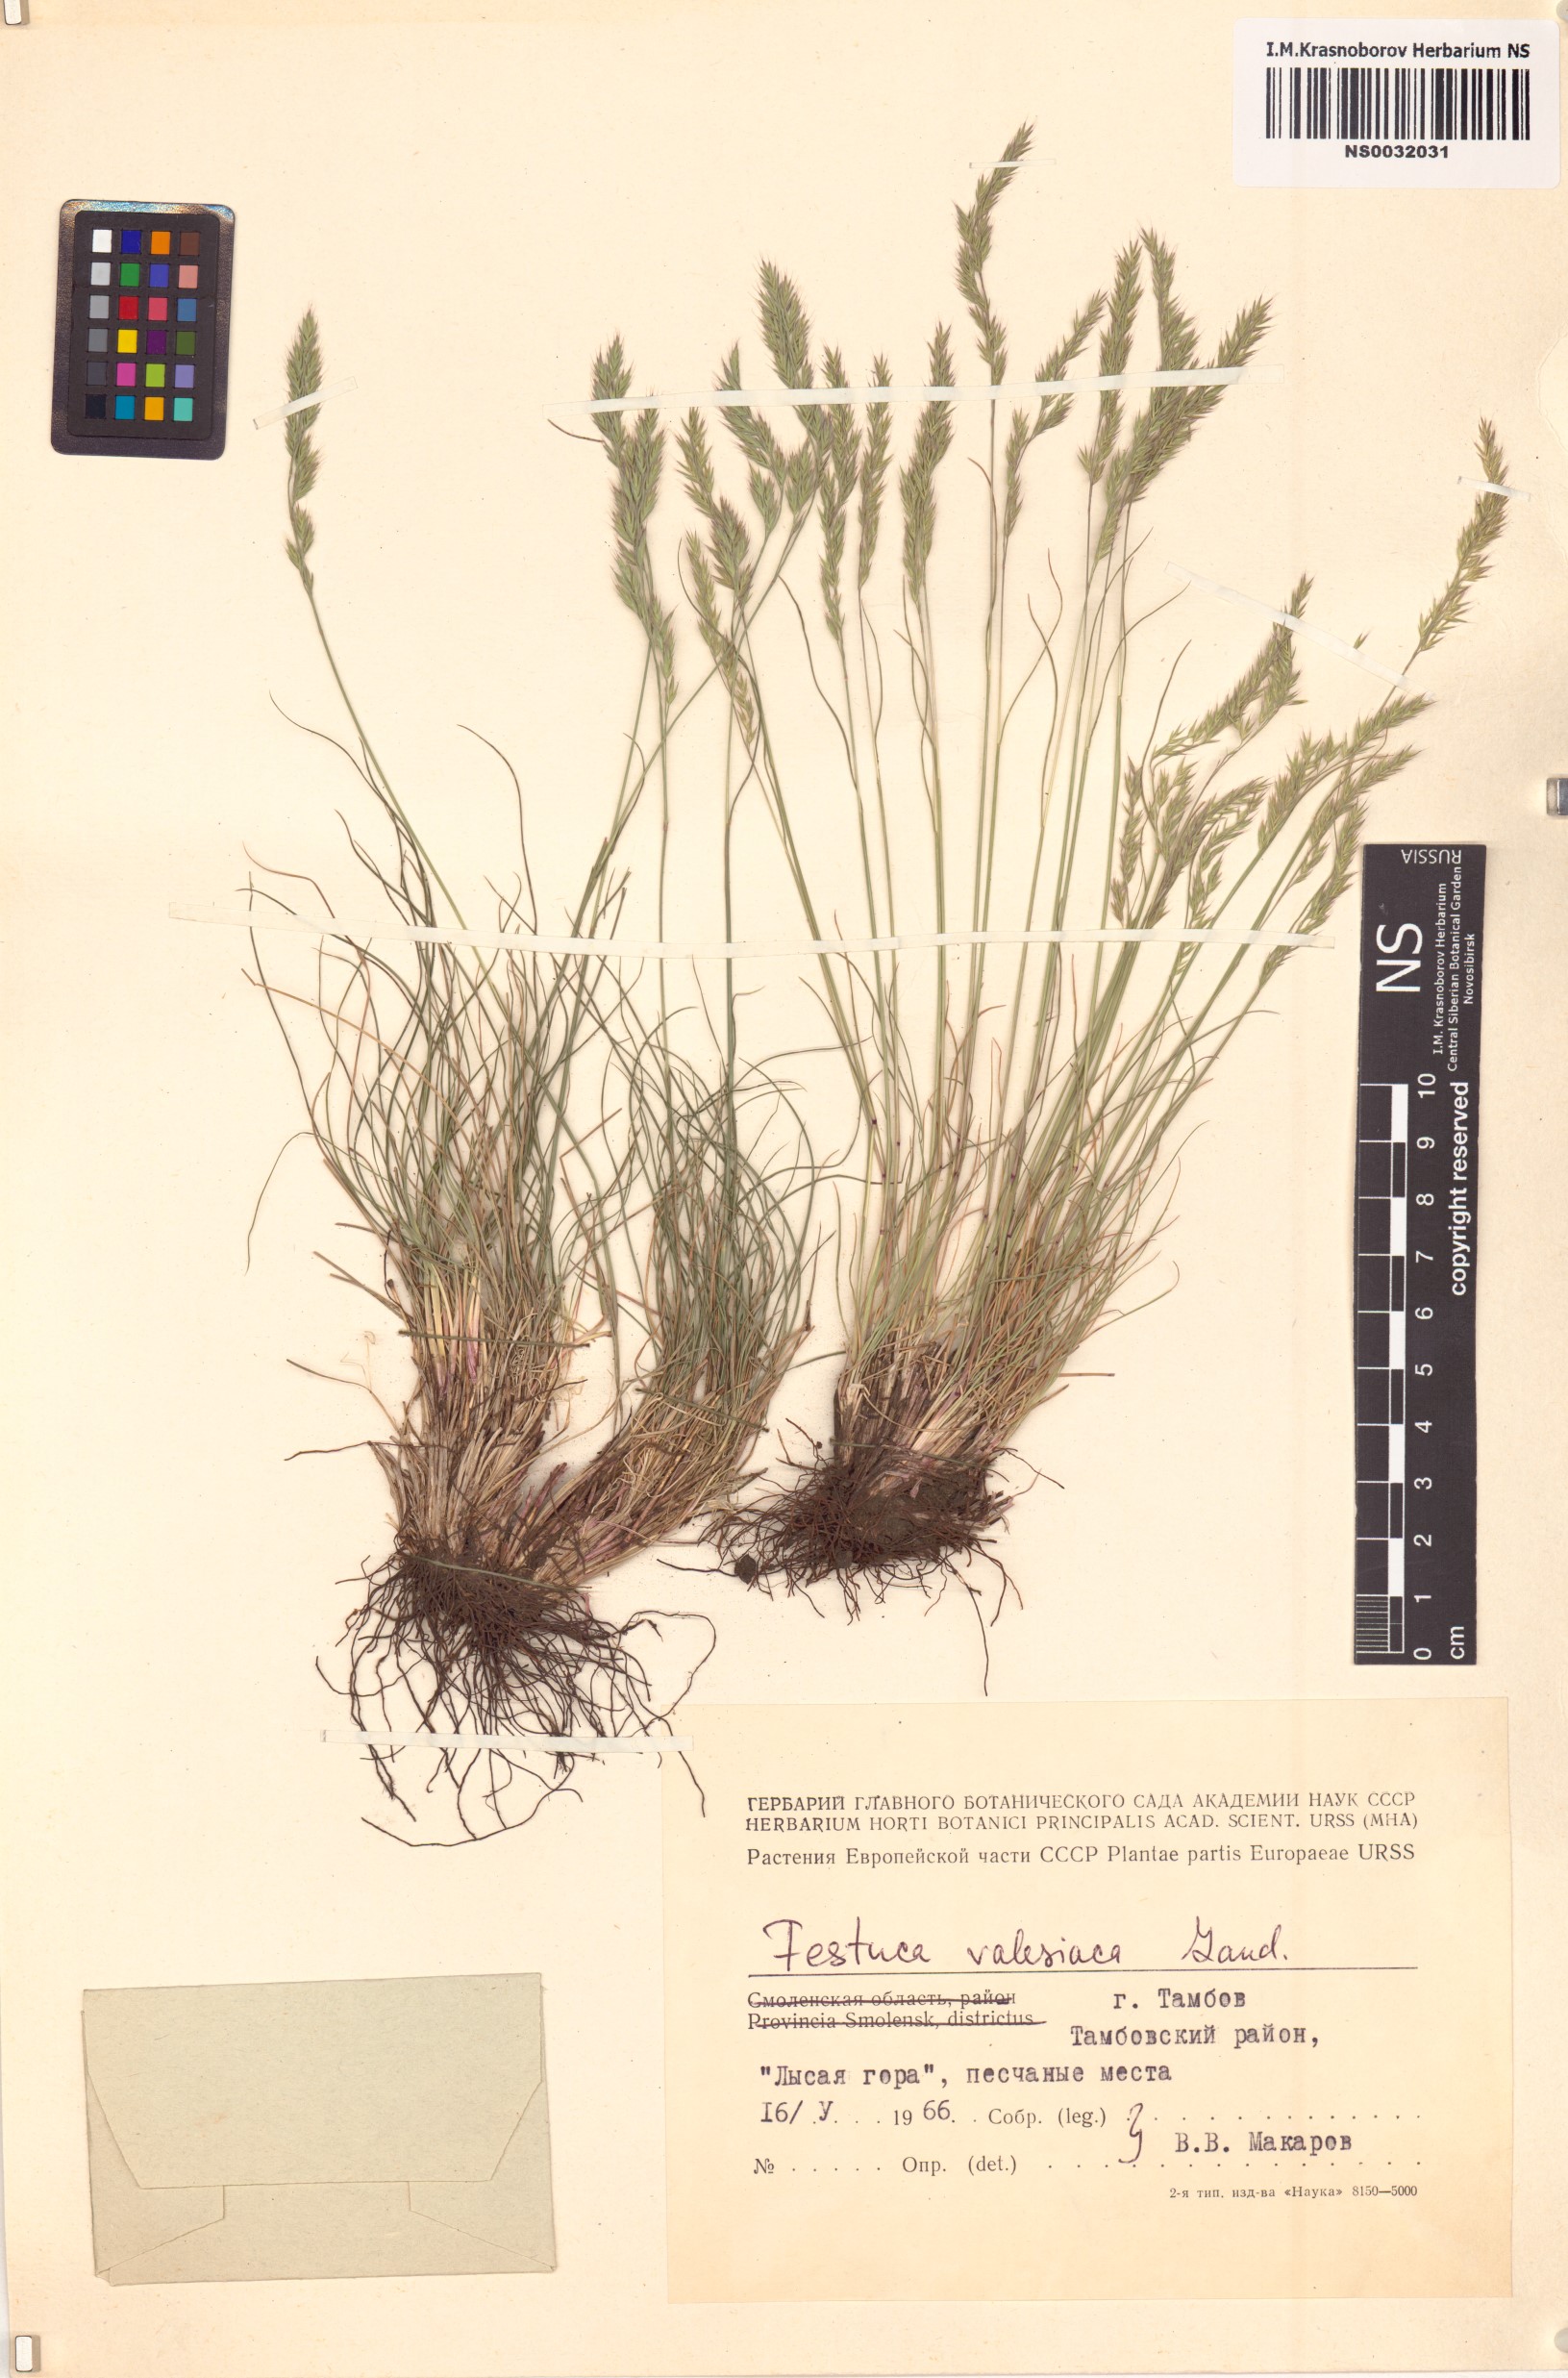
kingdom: Plantae
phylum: Tracheophyta
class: Liliopsida
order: Poales
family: Poaceae
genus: Festuca
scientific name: Festuca valesiaca
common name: Volga fescue
